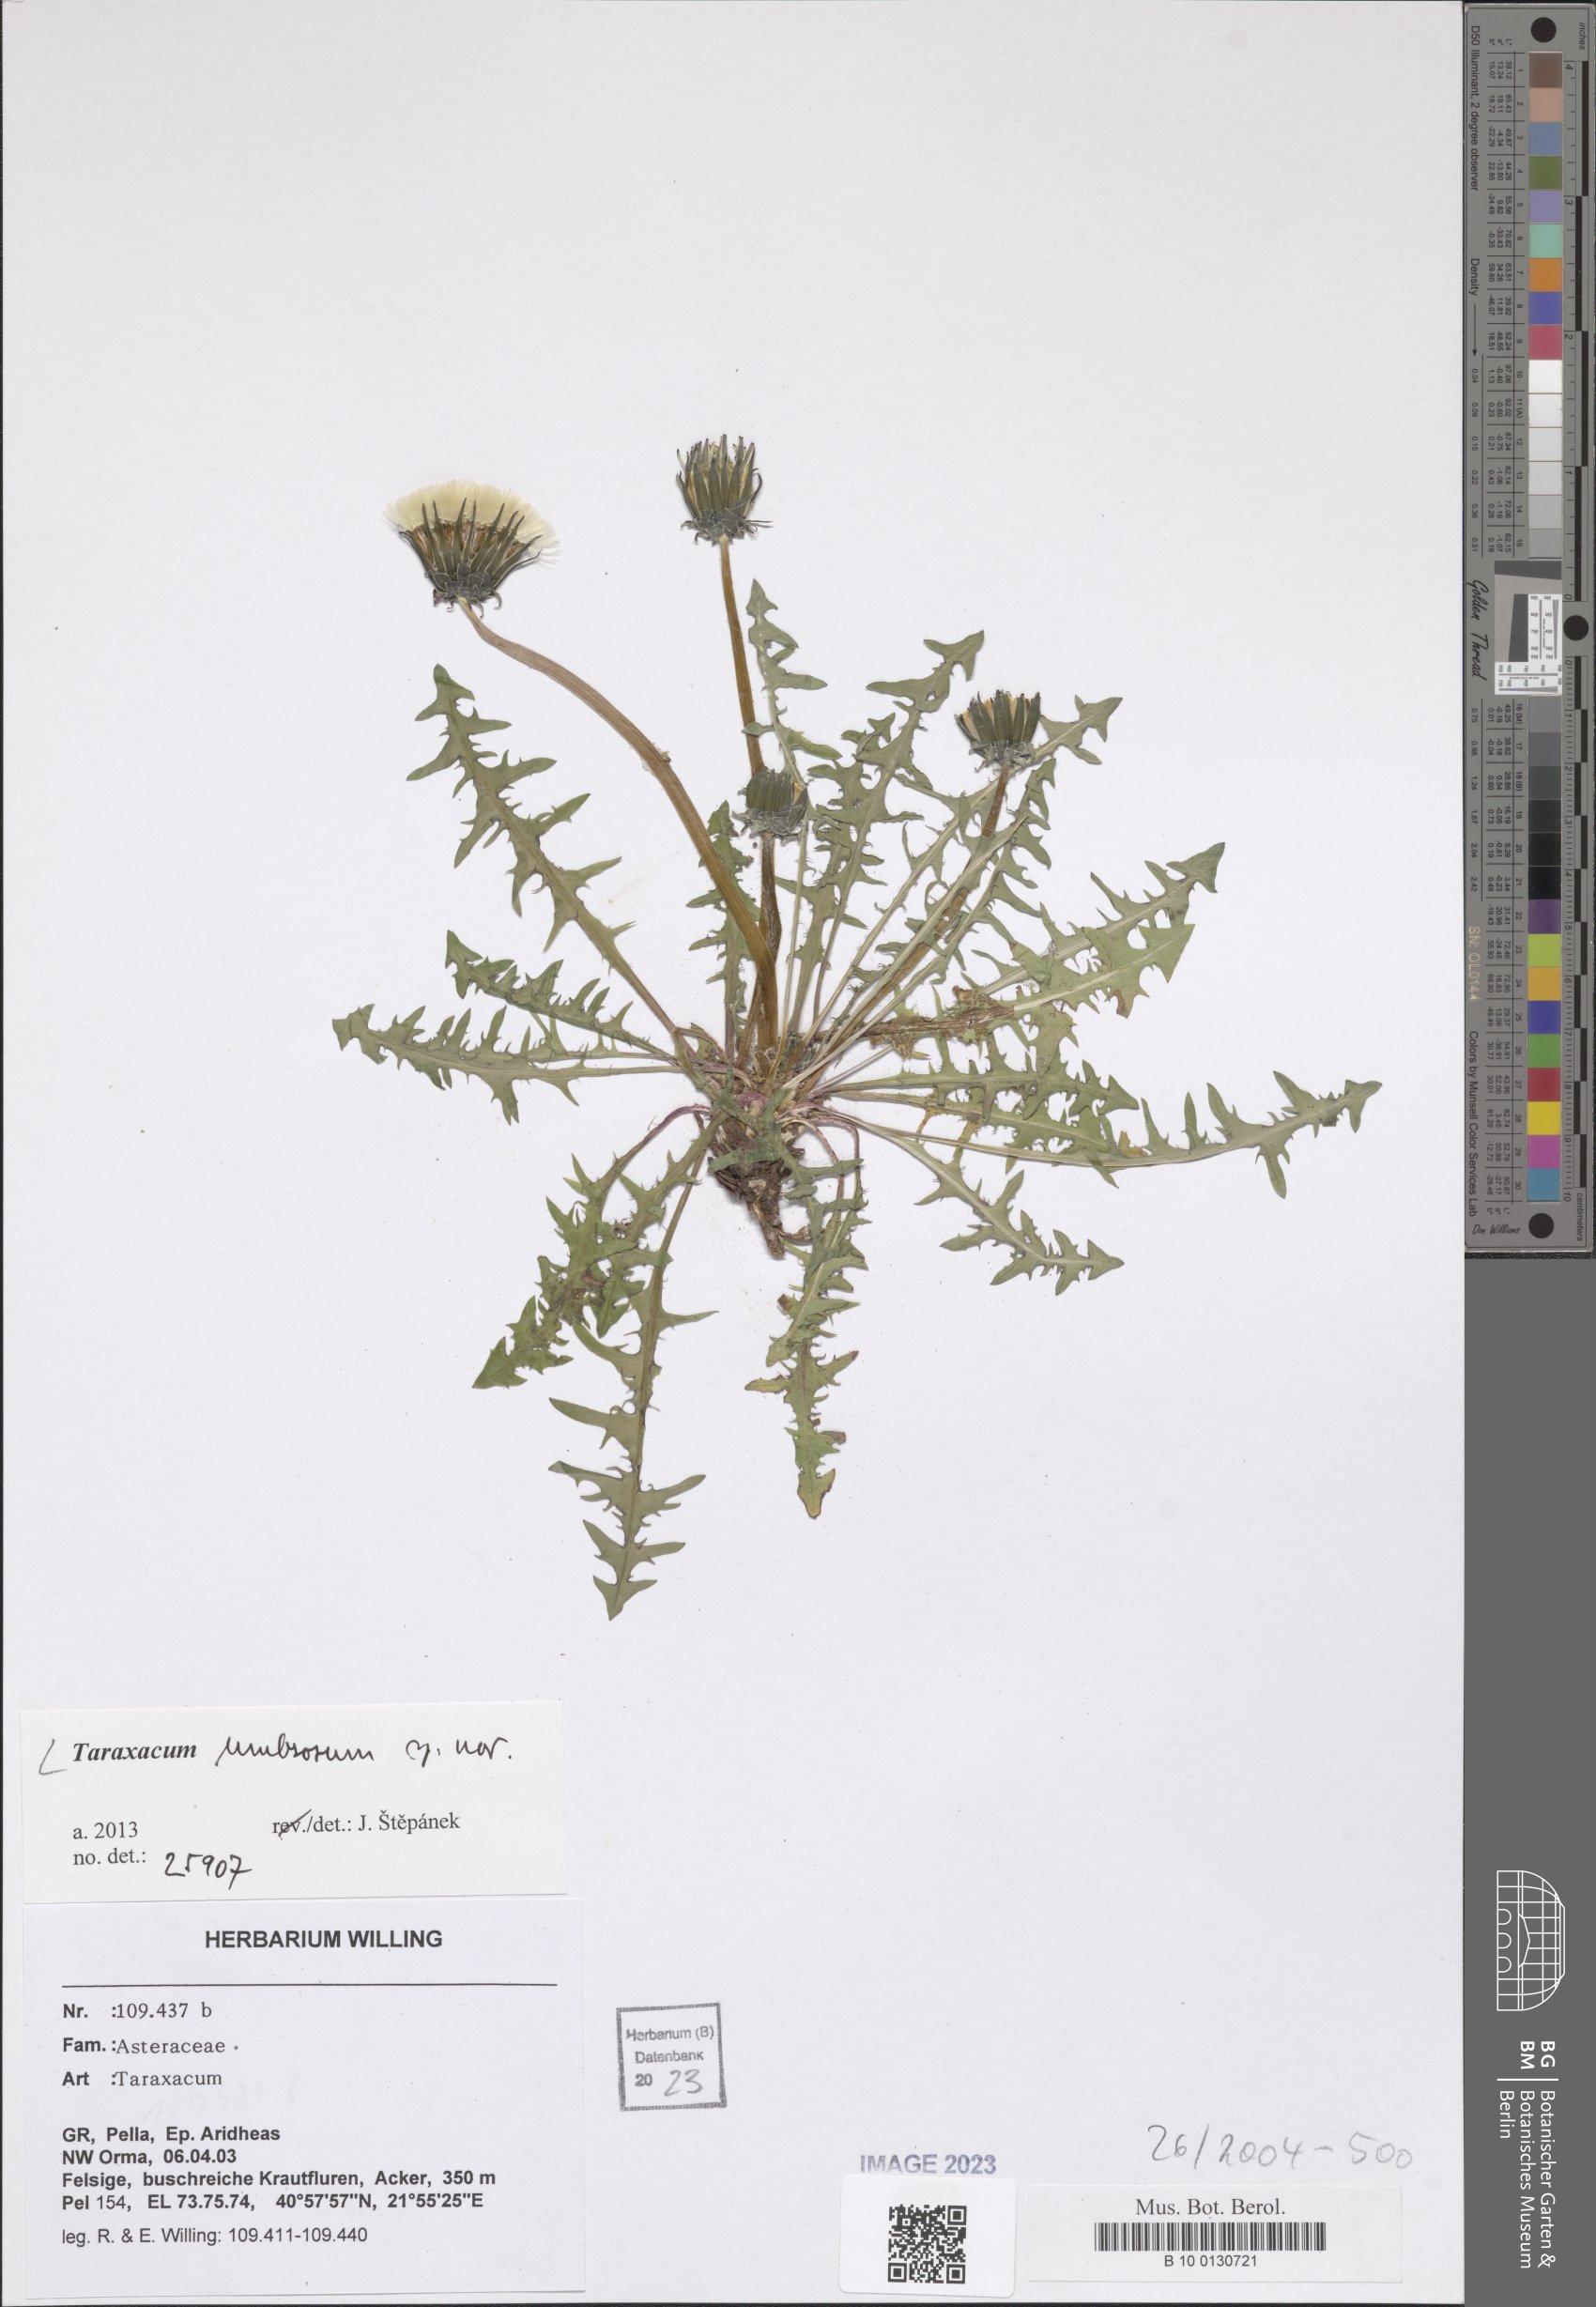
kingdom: Plantae
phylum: Tracheophyta
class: Magnoliopsida
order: Asterales
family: Asteraceae
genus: Taraxacum
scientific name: Taraxacum umbrosum
